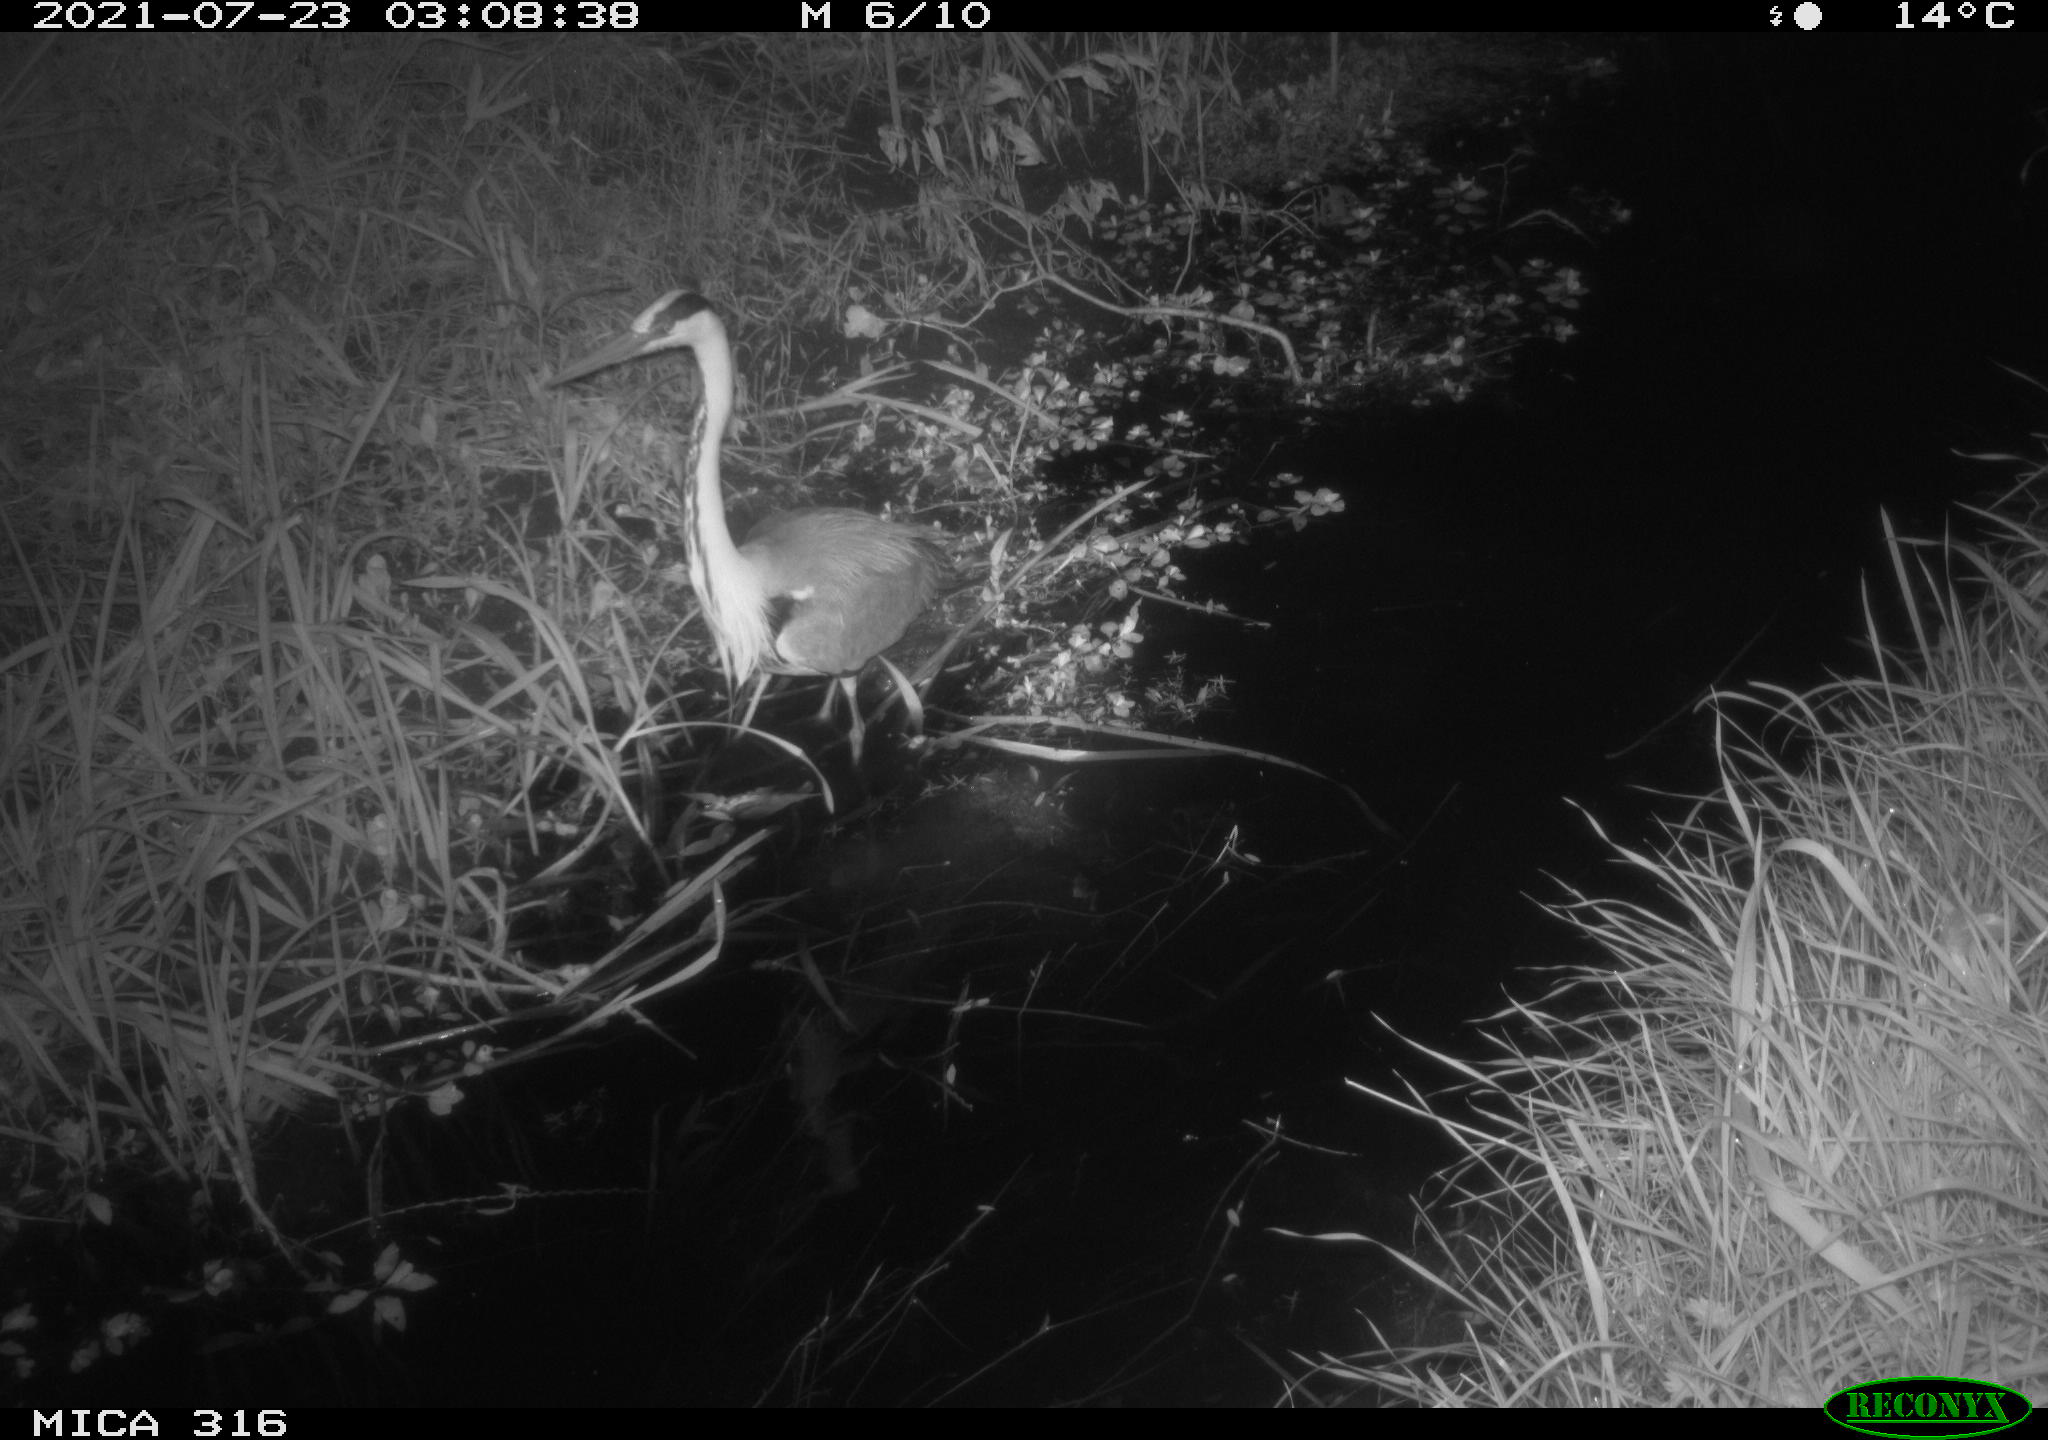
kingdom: Animalia
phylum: Chordata
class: Aves
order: Pelecaniformes
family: Ardeidae
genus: Ardea
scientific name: Ardea
